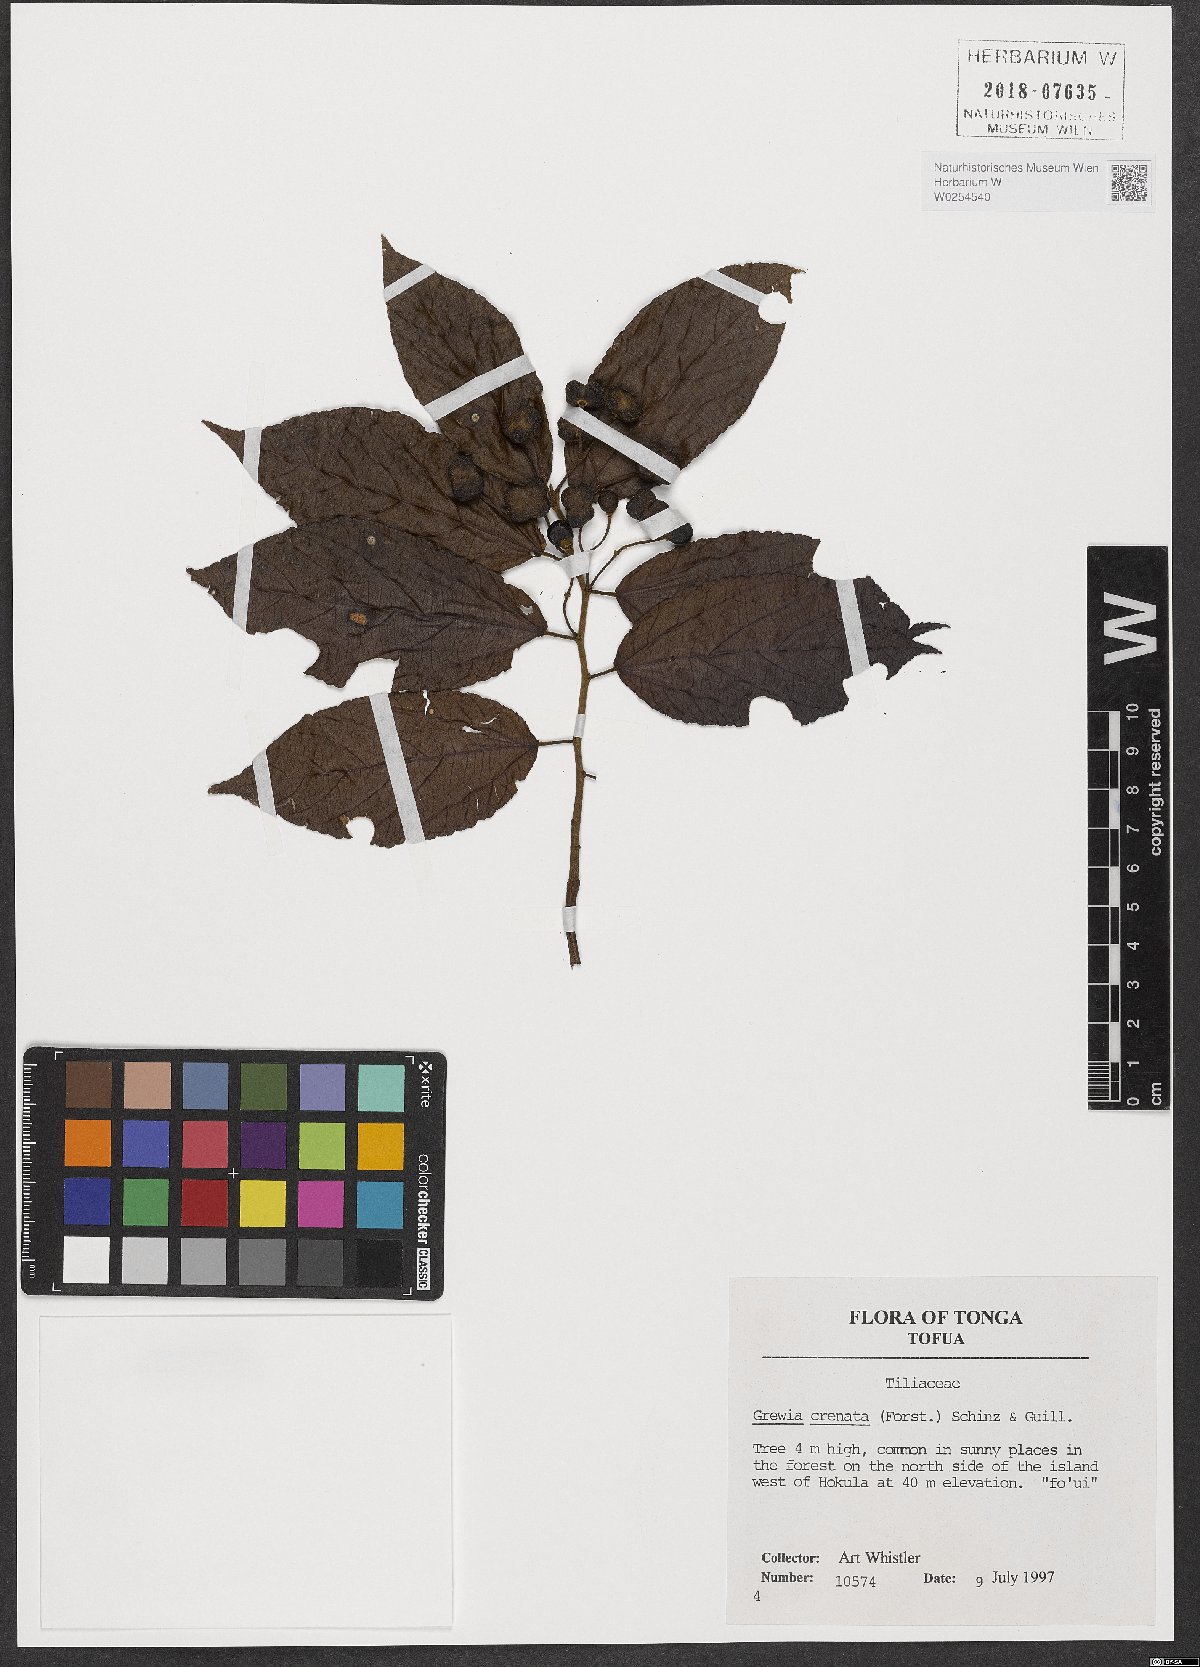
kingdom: Plantae
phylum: Tracheophyta
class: Magnoliopsida
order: Malvales
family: Malvaceae
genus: Grewia
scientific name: Grewia crenata
